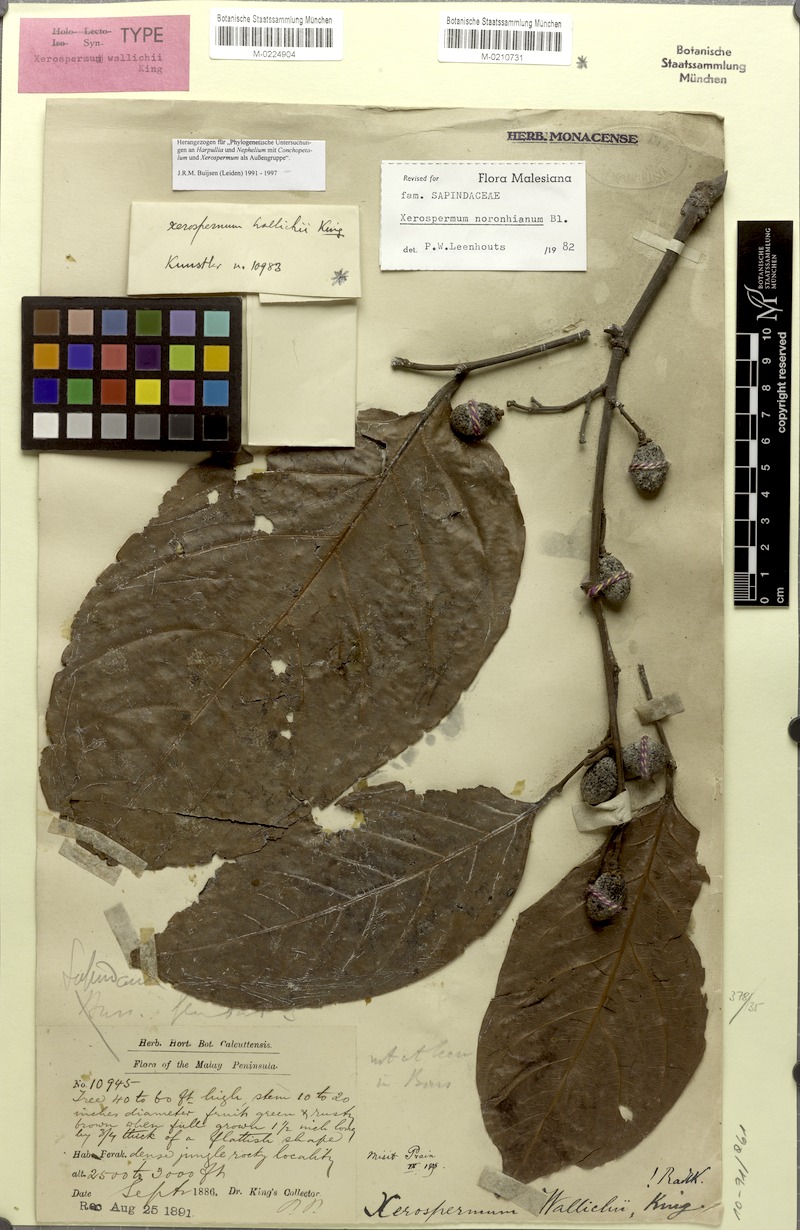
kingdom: Plantae
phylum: Tracheophyta
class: Magnoliopsida
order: Sapindales
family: Sapindaceae
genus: Xerospermum
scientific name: Xerospermum noronhianum
